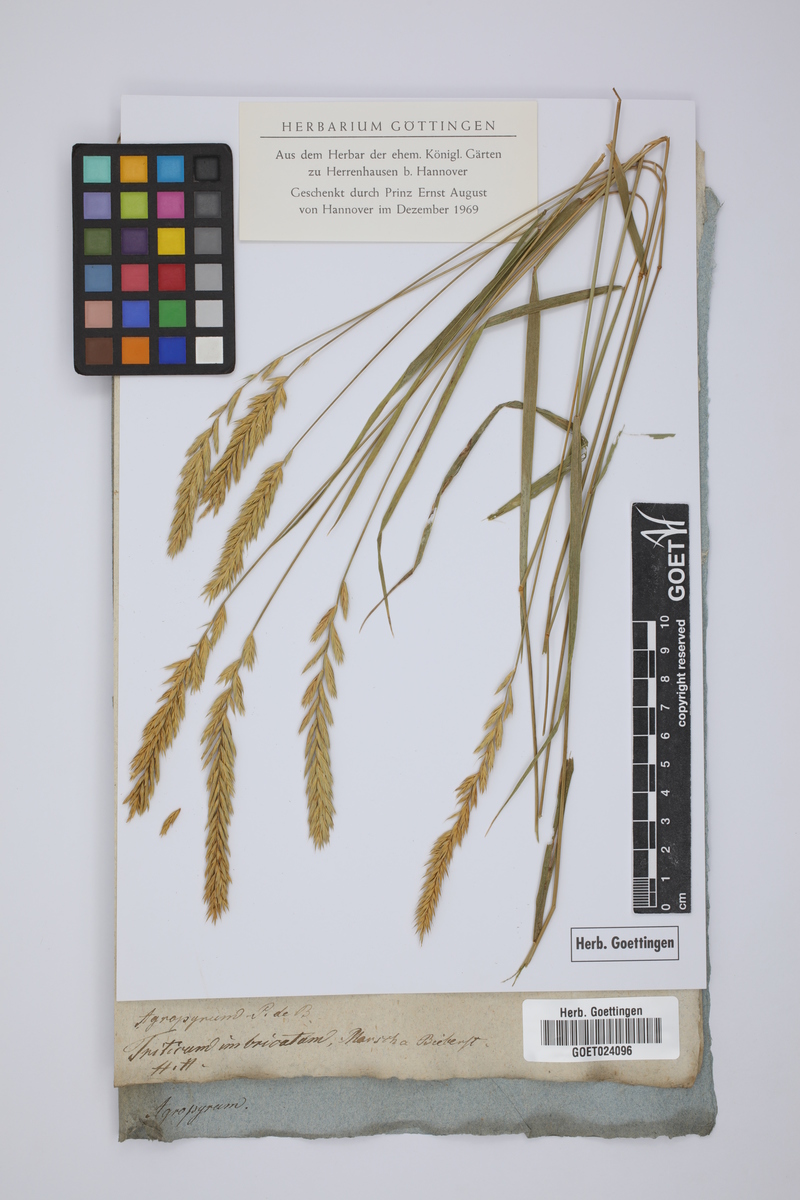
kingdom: Plantae
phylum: Tracheophyta
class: Liliopsida
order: Poales
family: Poaceae
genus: Agropyron
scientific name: Agropyron cristatum
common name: Crested wheatgrass
